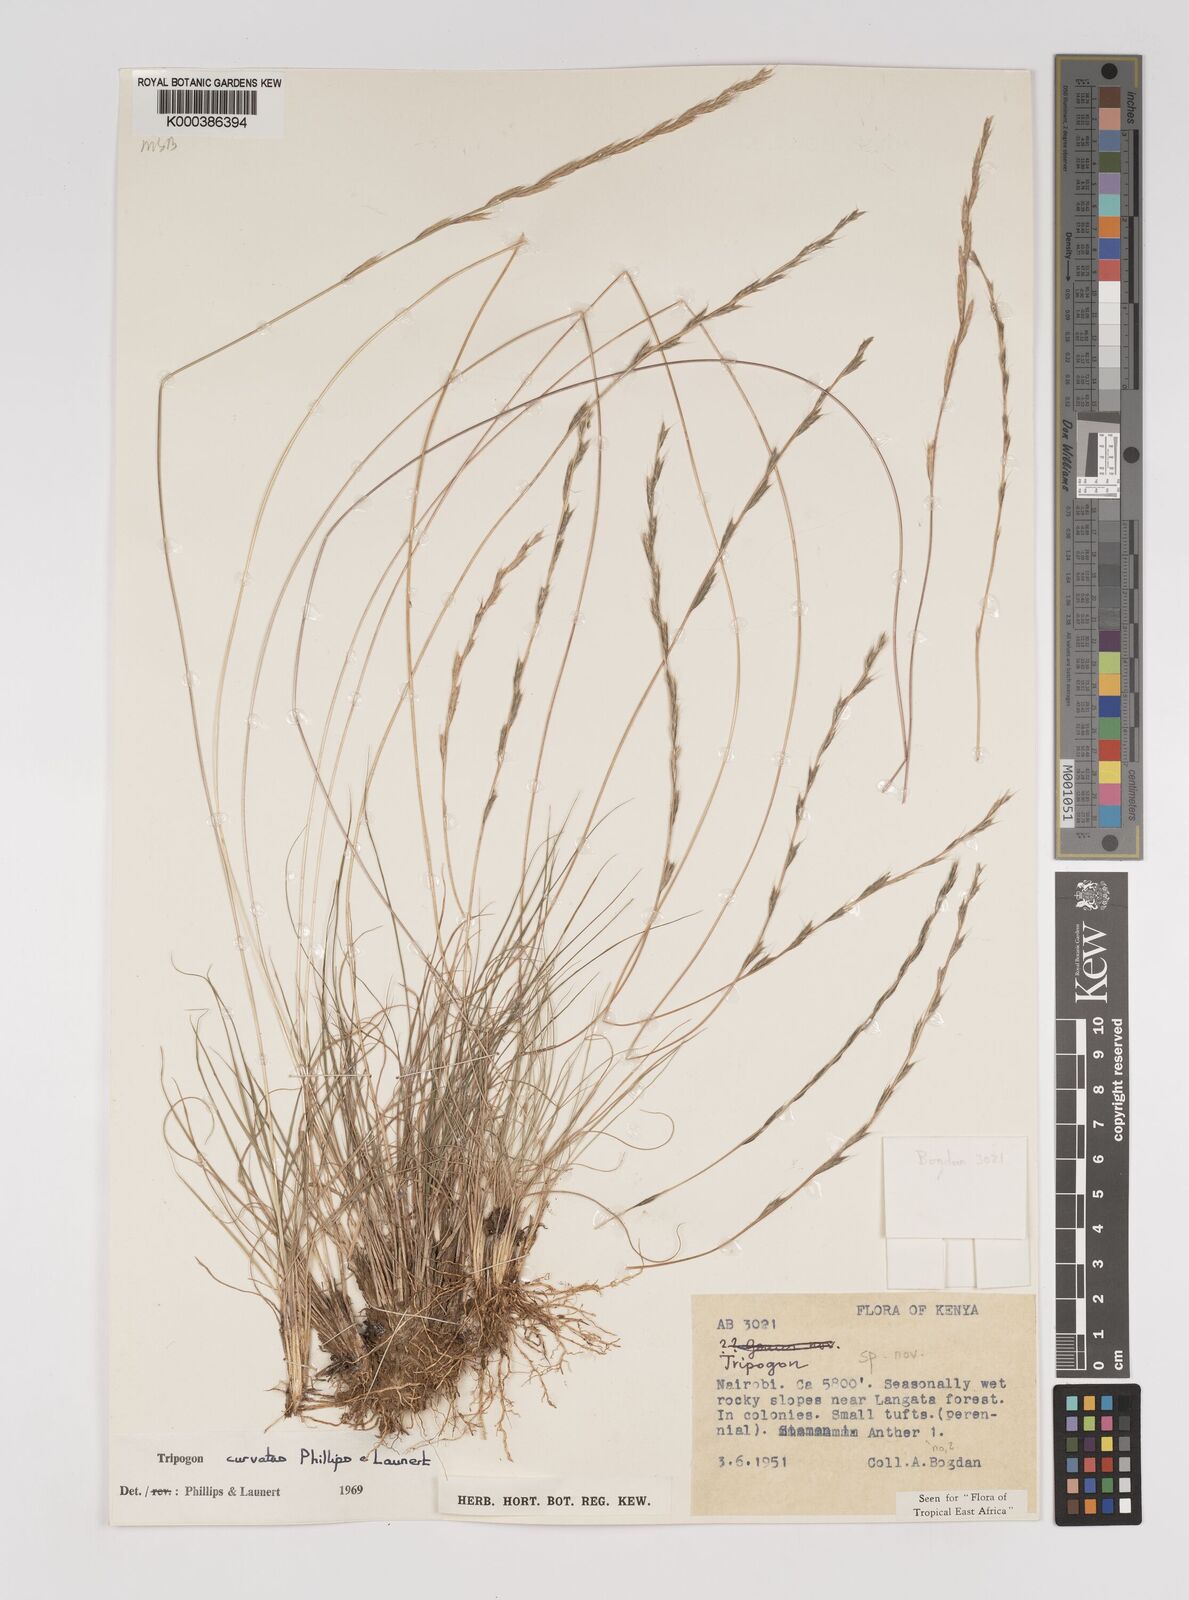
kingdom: Plantae
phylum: Tracheophyta
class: Liliopsida
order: Poales
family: Poaceae
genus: Tripogon
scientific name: Tripogon curvatus
